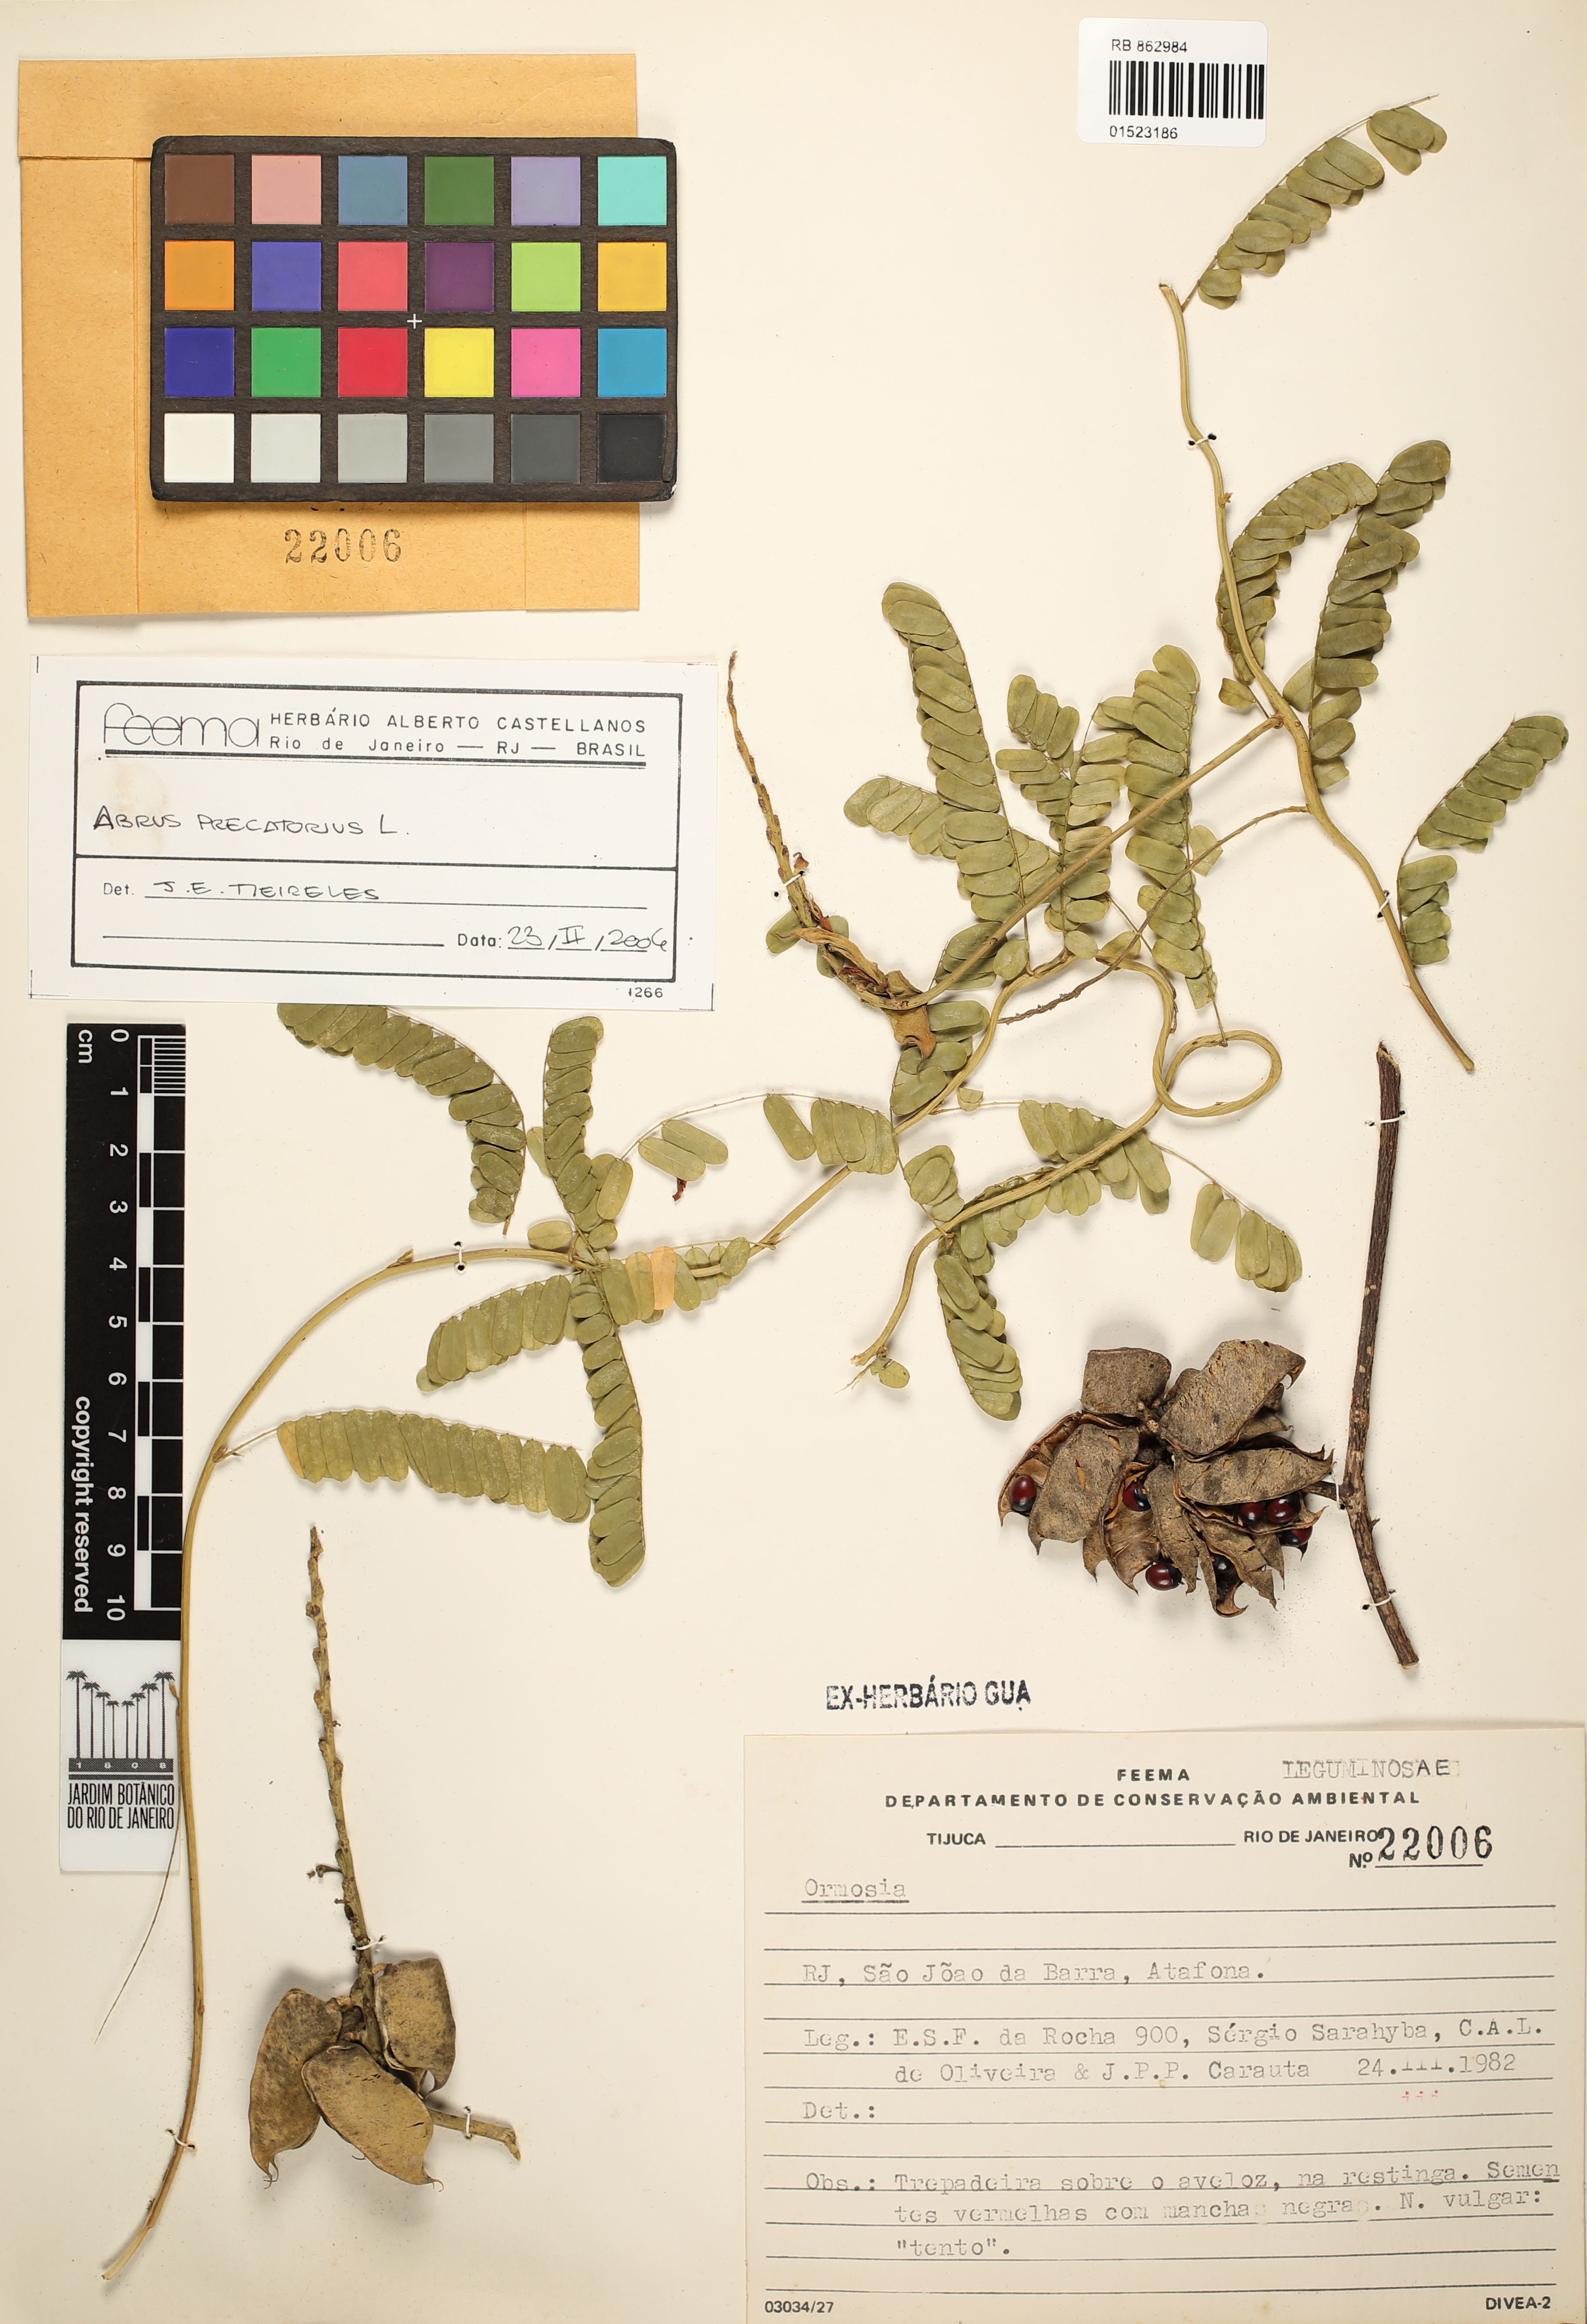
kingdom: Plantae
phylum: Tracheophyta
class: Magnoliopsida
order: Fabales
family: Fabaceae
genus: Abrus
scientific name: Abrus precatorius
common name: Rosarypea
